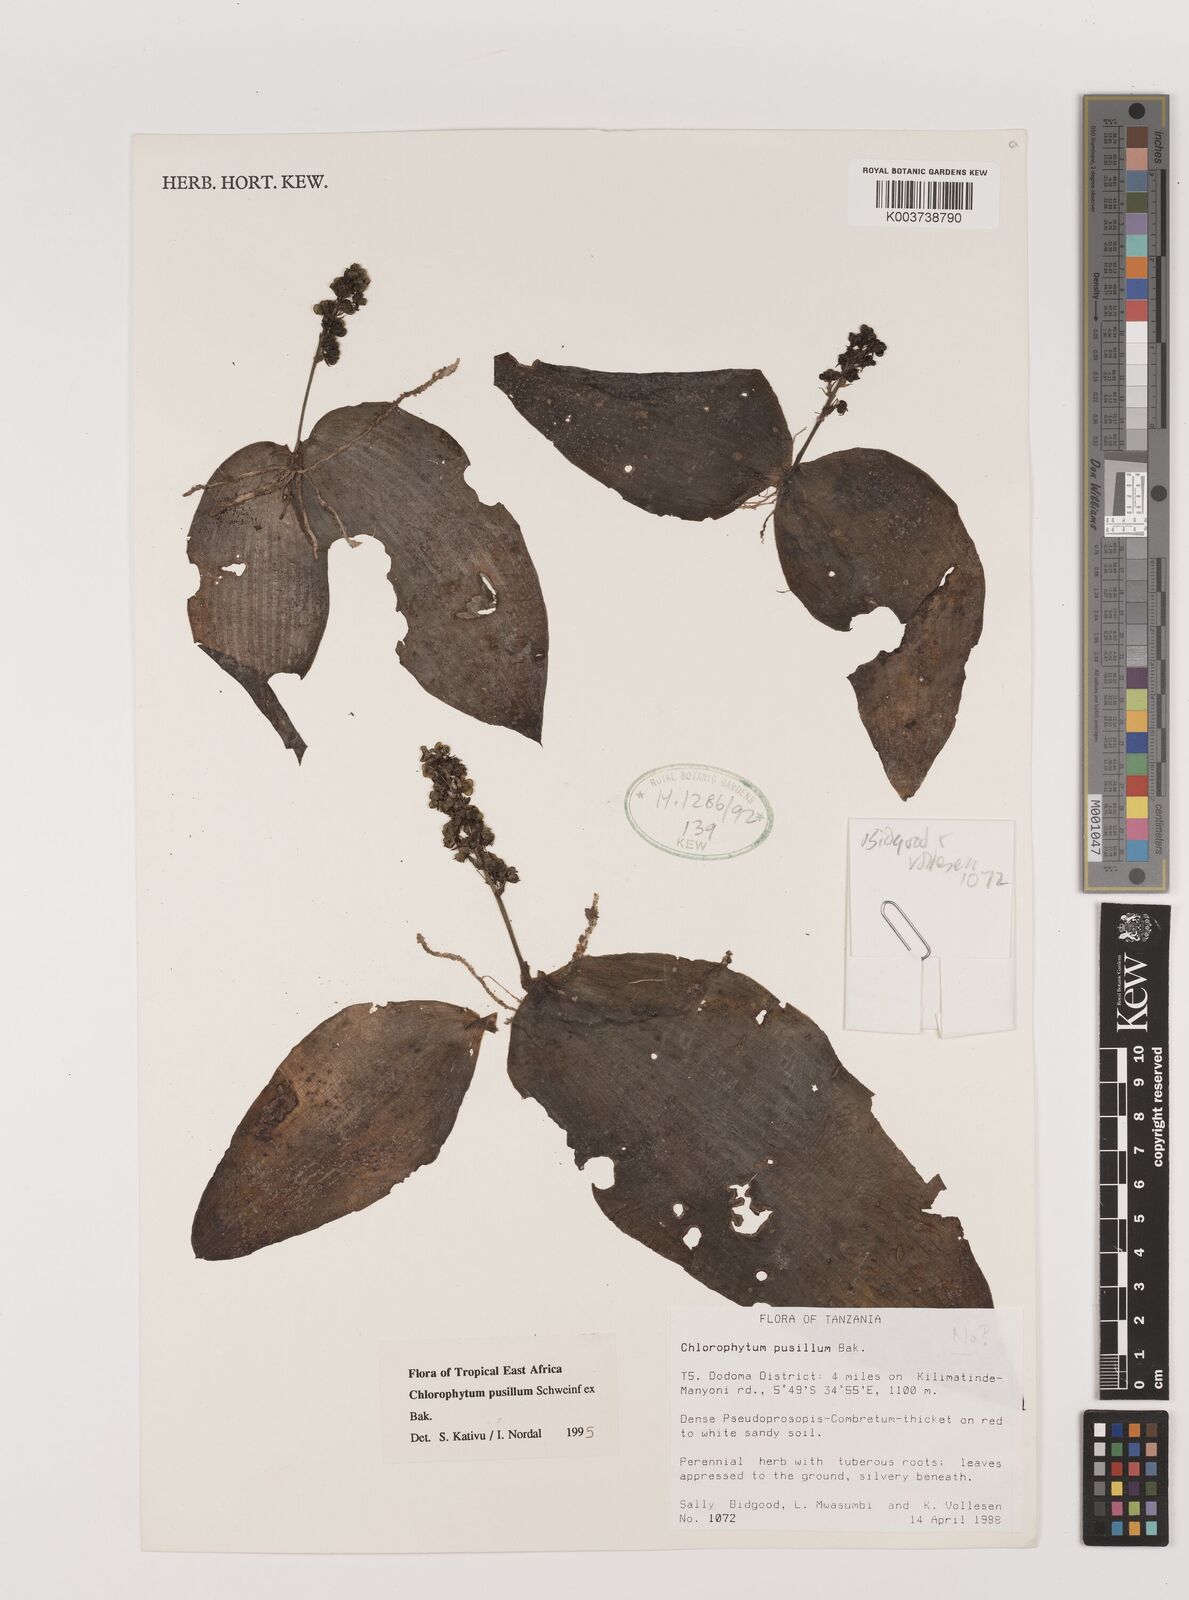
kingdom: Plantae
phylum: Tracheophyta
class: Liliopsida
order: Asparagales
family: Asparagaceae
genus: Chlorophytum
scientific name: Chlorophytum pusillum
